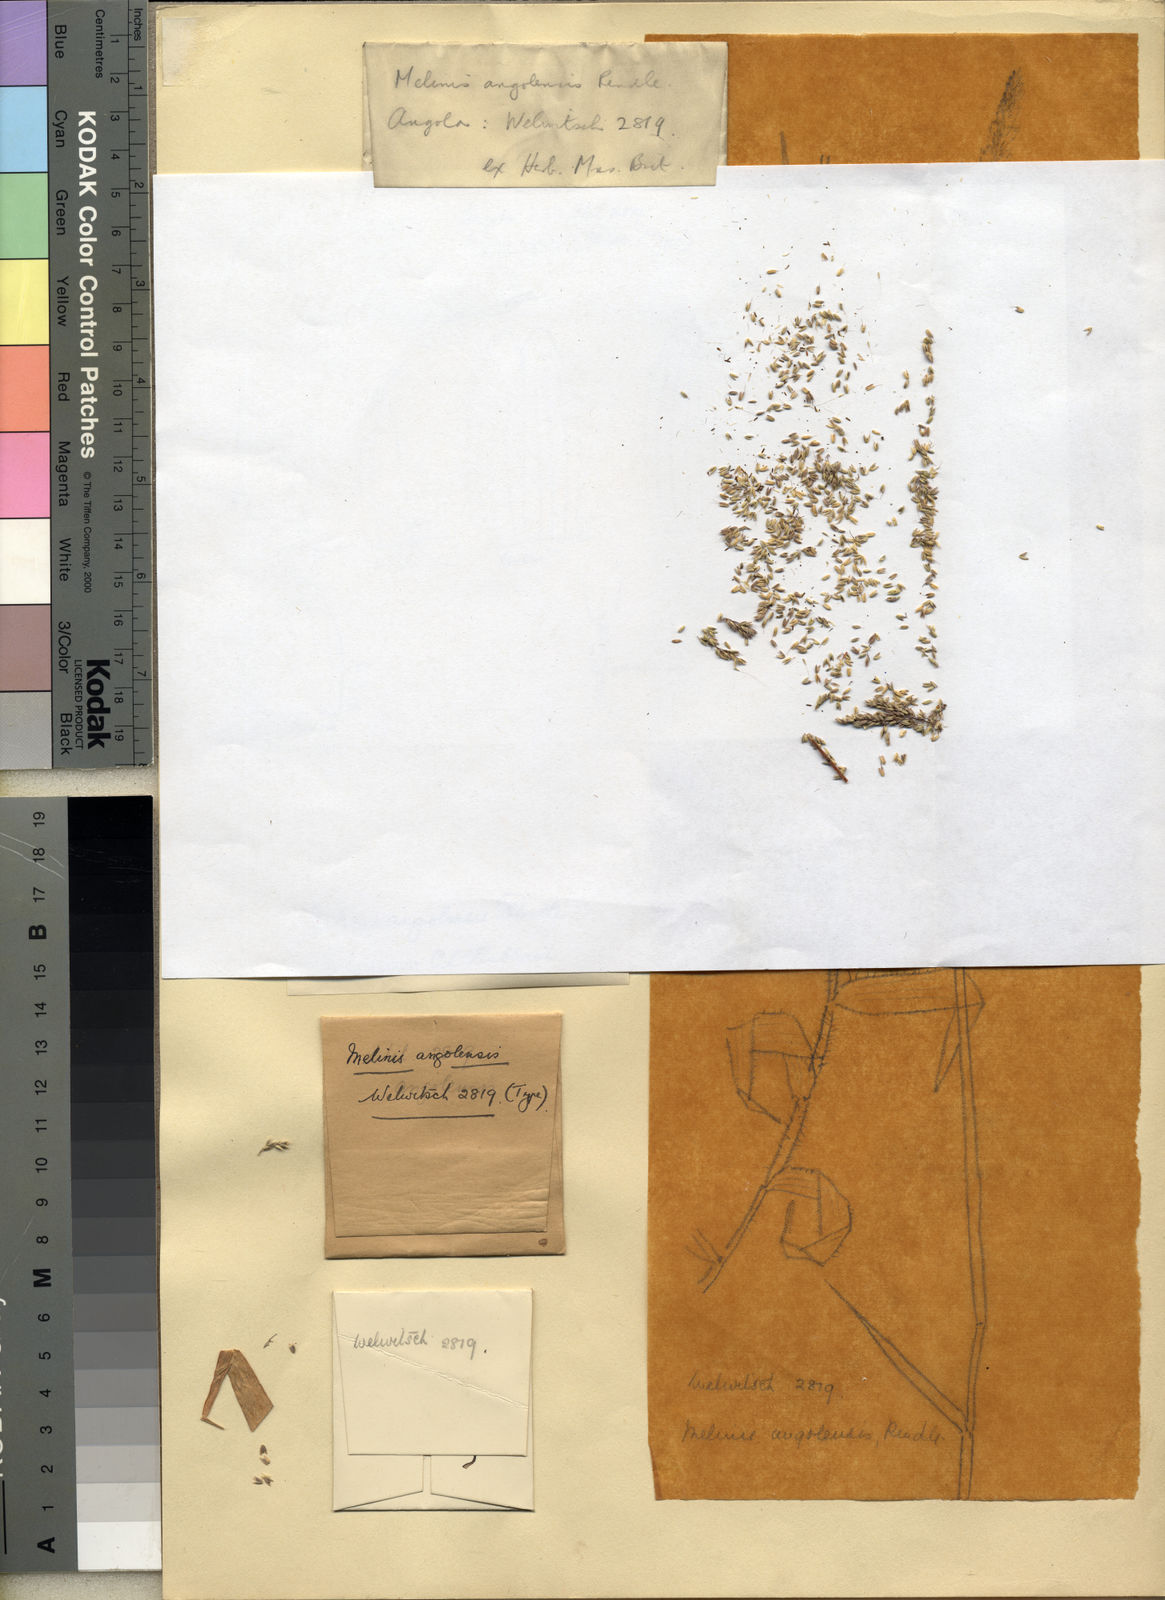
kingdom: Plantae
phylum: Tracheophyta
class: Liliopsida
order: Poales
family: Poaceae
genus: Melinis
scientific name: Melinis angolensis
